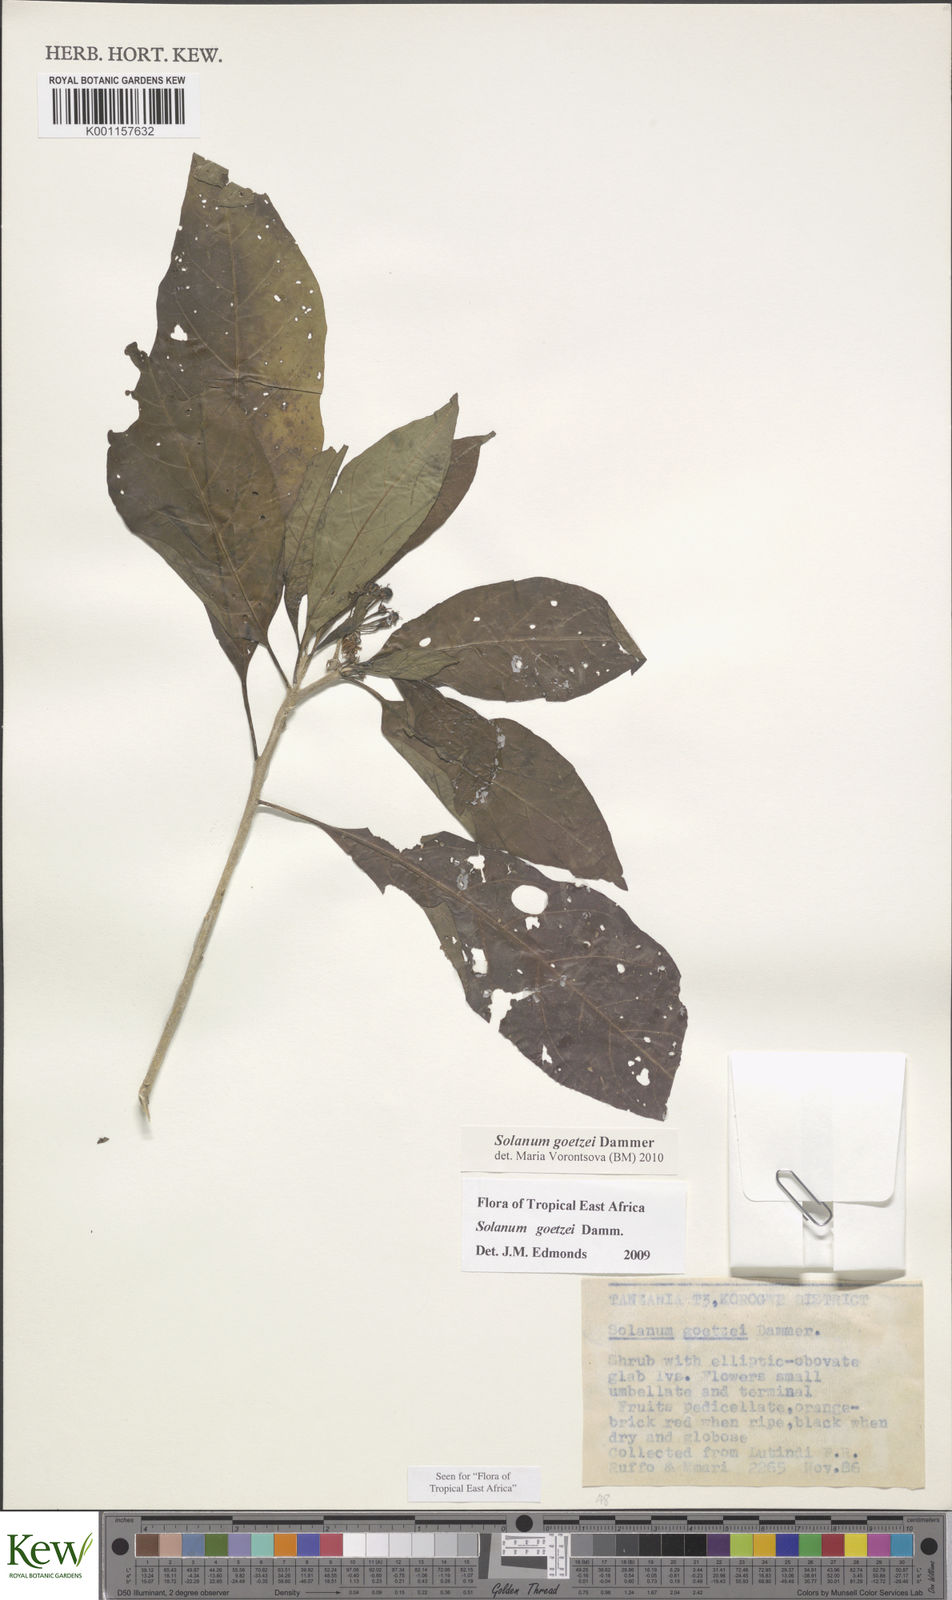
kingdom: Plantae
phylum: Tracheophyta
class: Magnoliopsida
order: Solanales
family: Solanaceae
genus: Solanum
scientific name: Solanum goetzei
